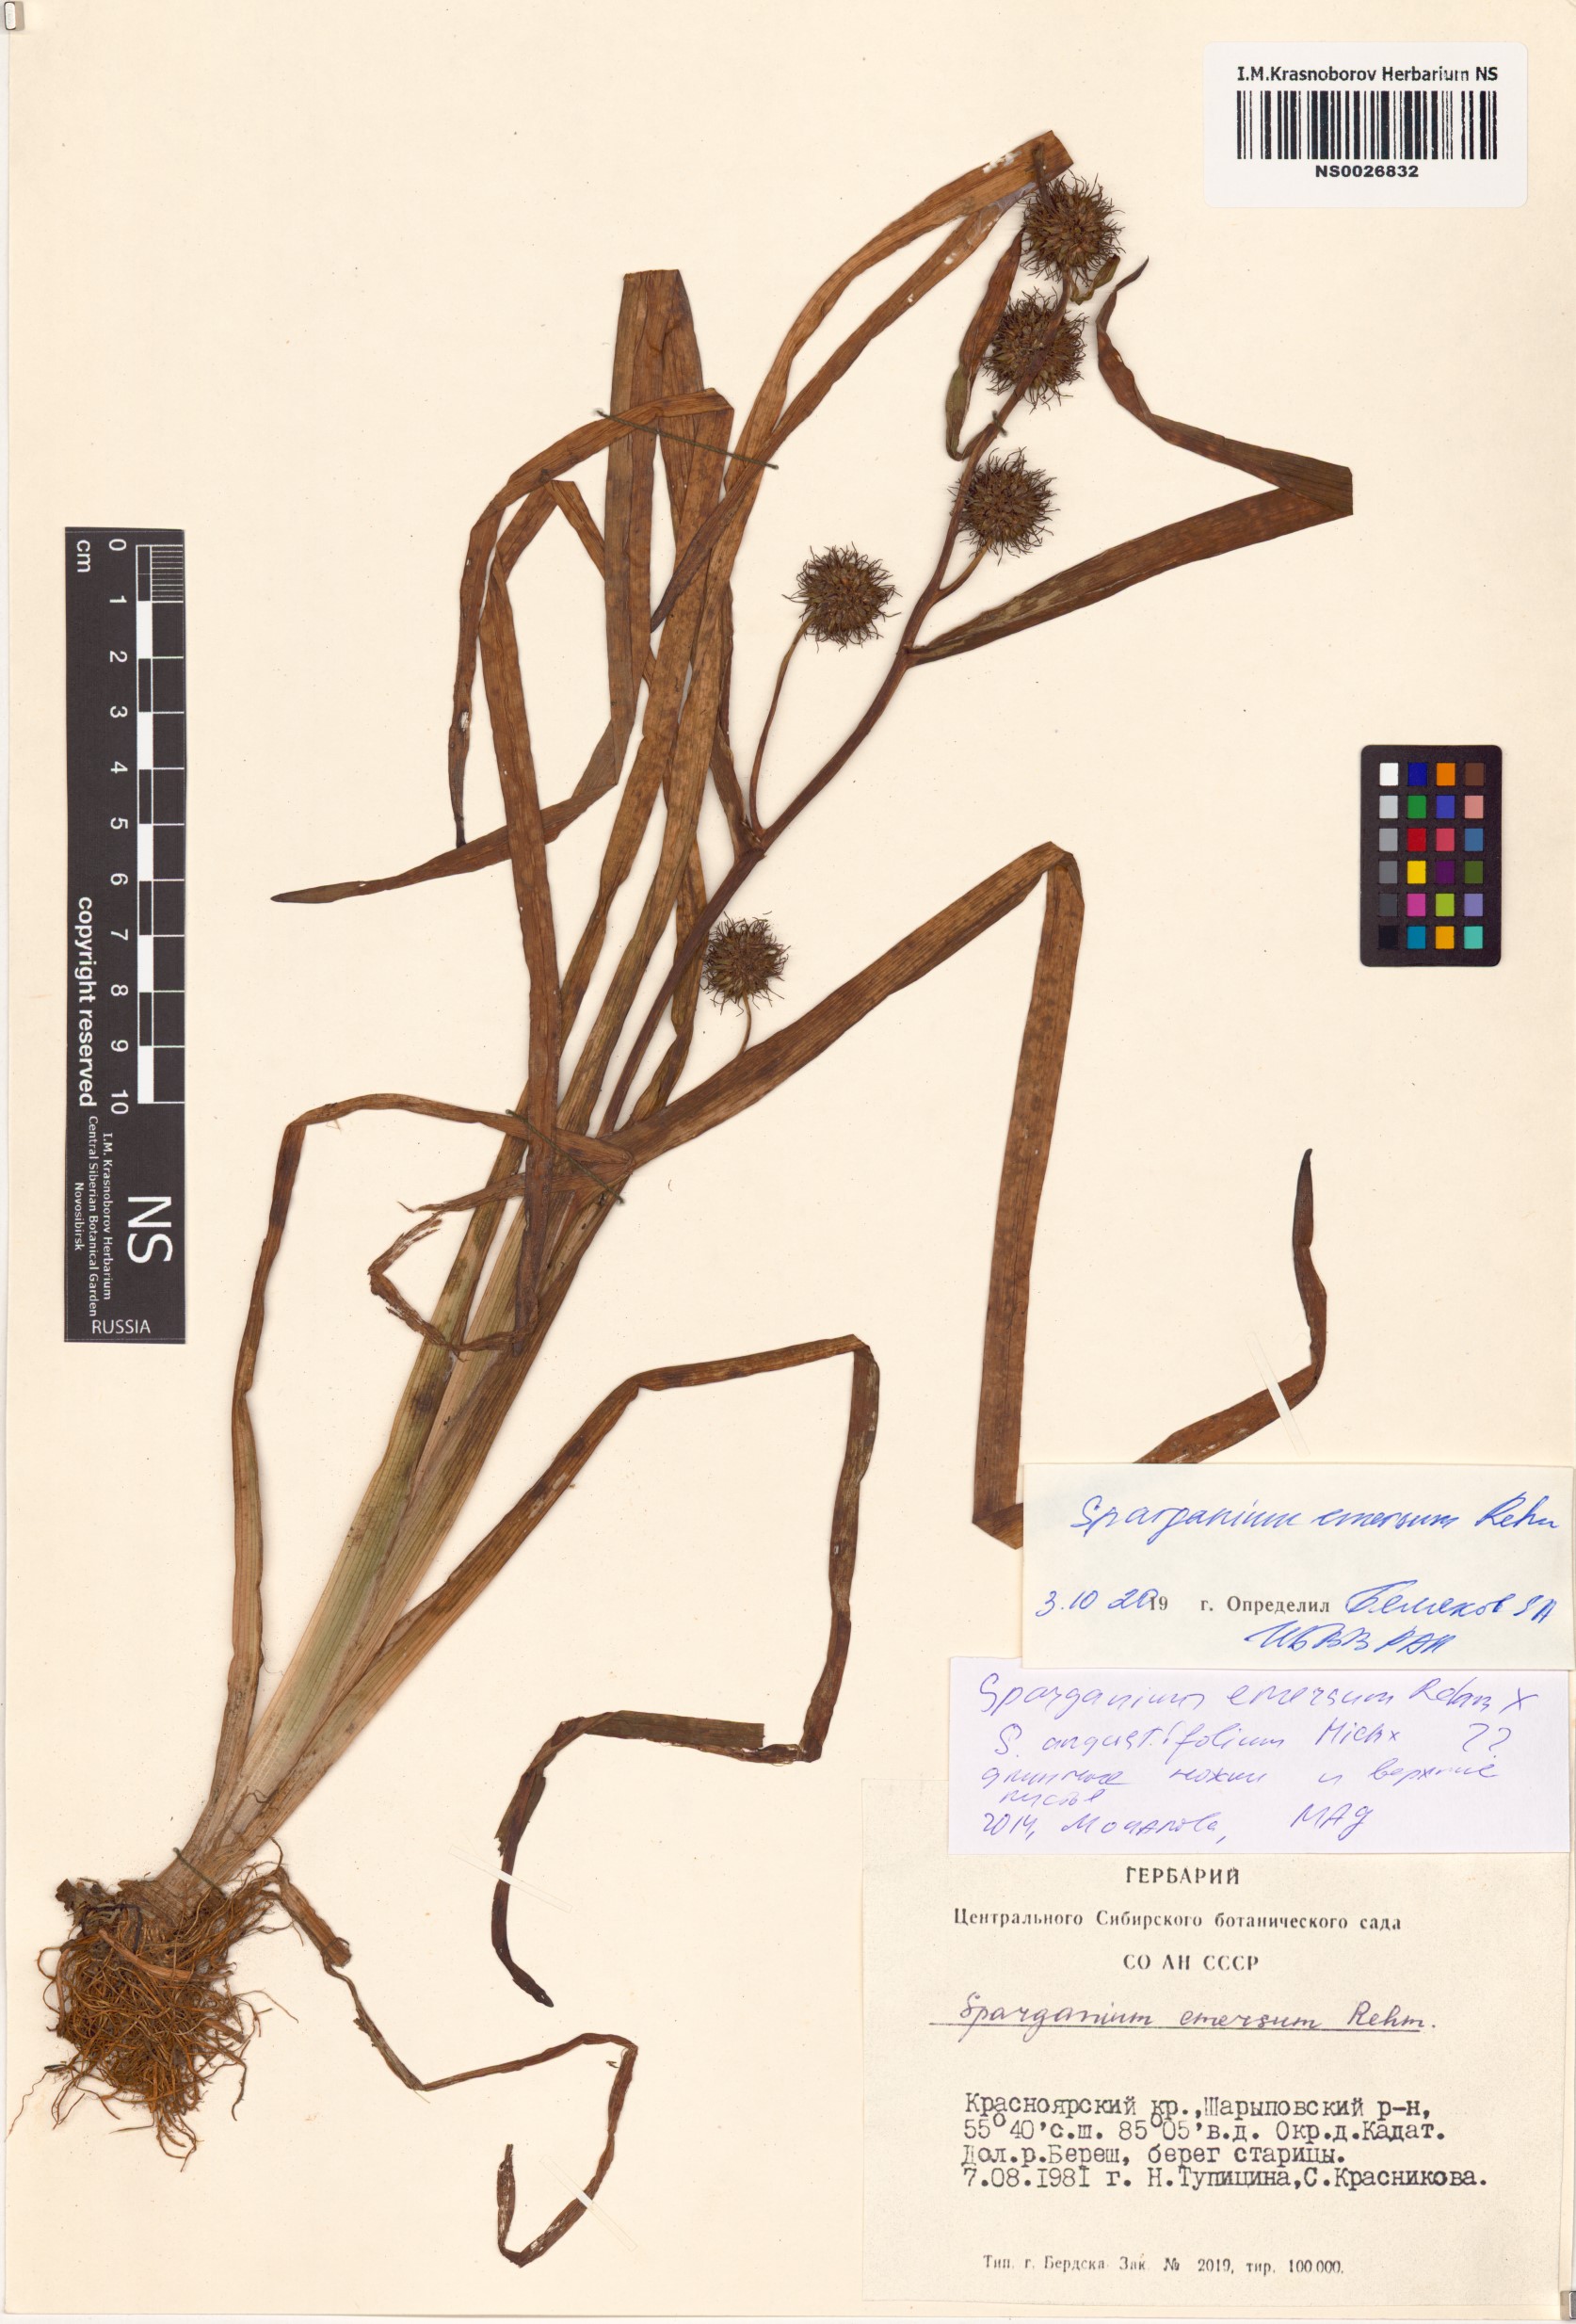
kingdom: Plantae
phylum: Tracheophyta
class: Liliopsida
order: Poales
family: Typhaceae
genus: Sparganium
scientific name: Sparganium emersum
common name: Unbranched bur-reed
